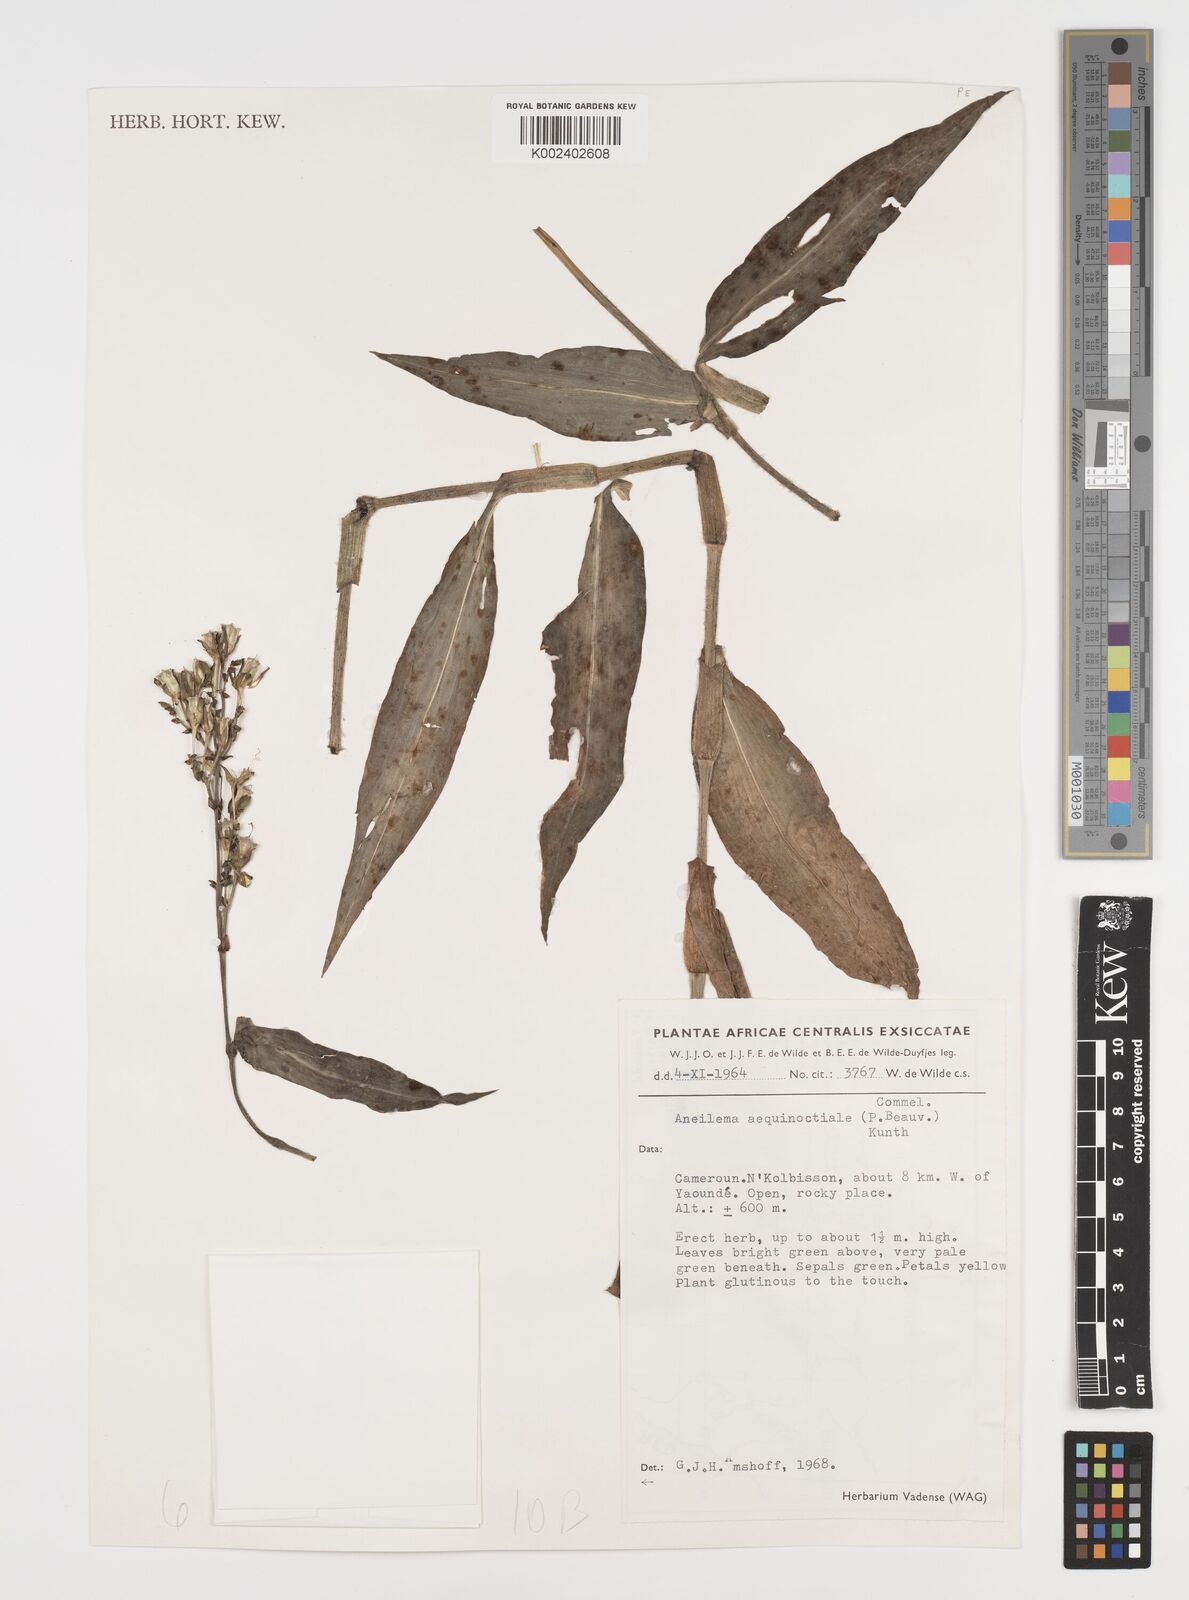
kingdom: Plantae
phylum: Tracheophyta
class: Liliopsida
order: Commelinales
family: Commelinaceae
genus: Aneilema
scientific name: Aneilema aequinoctiale
